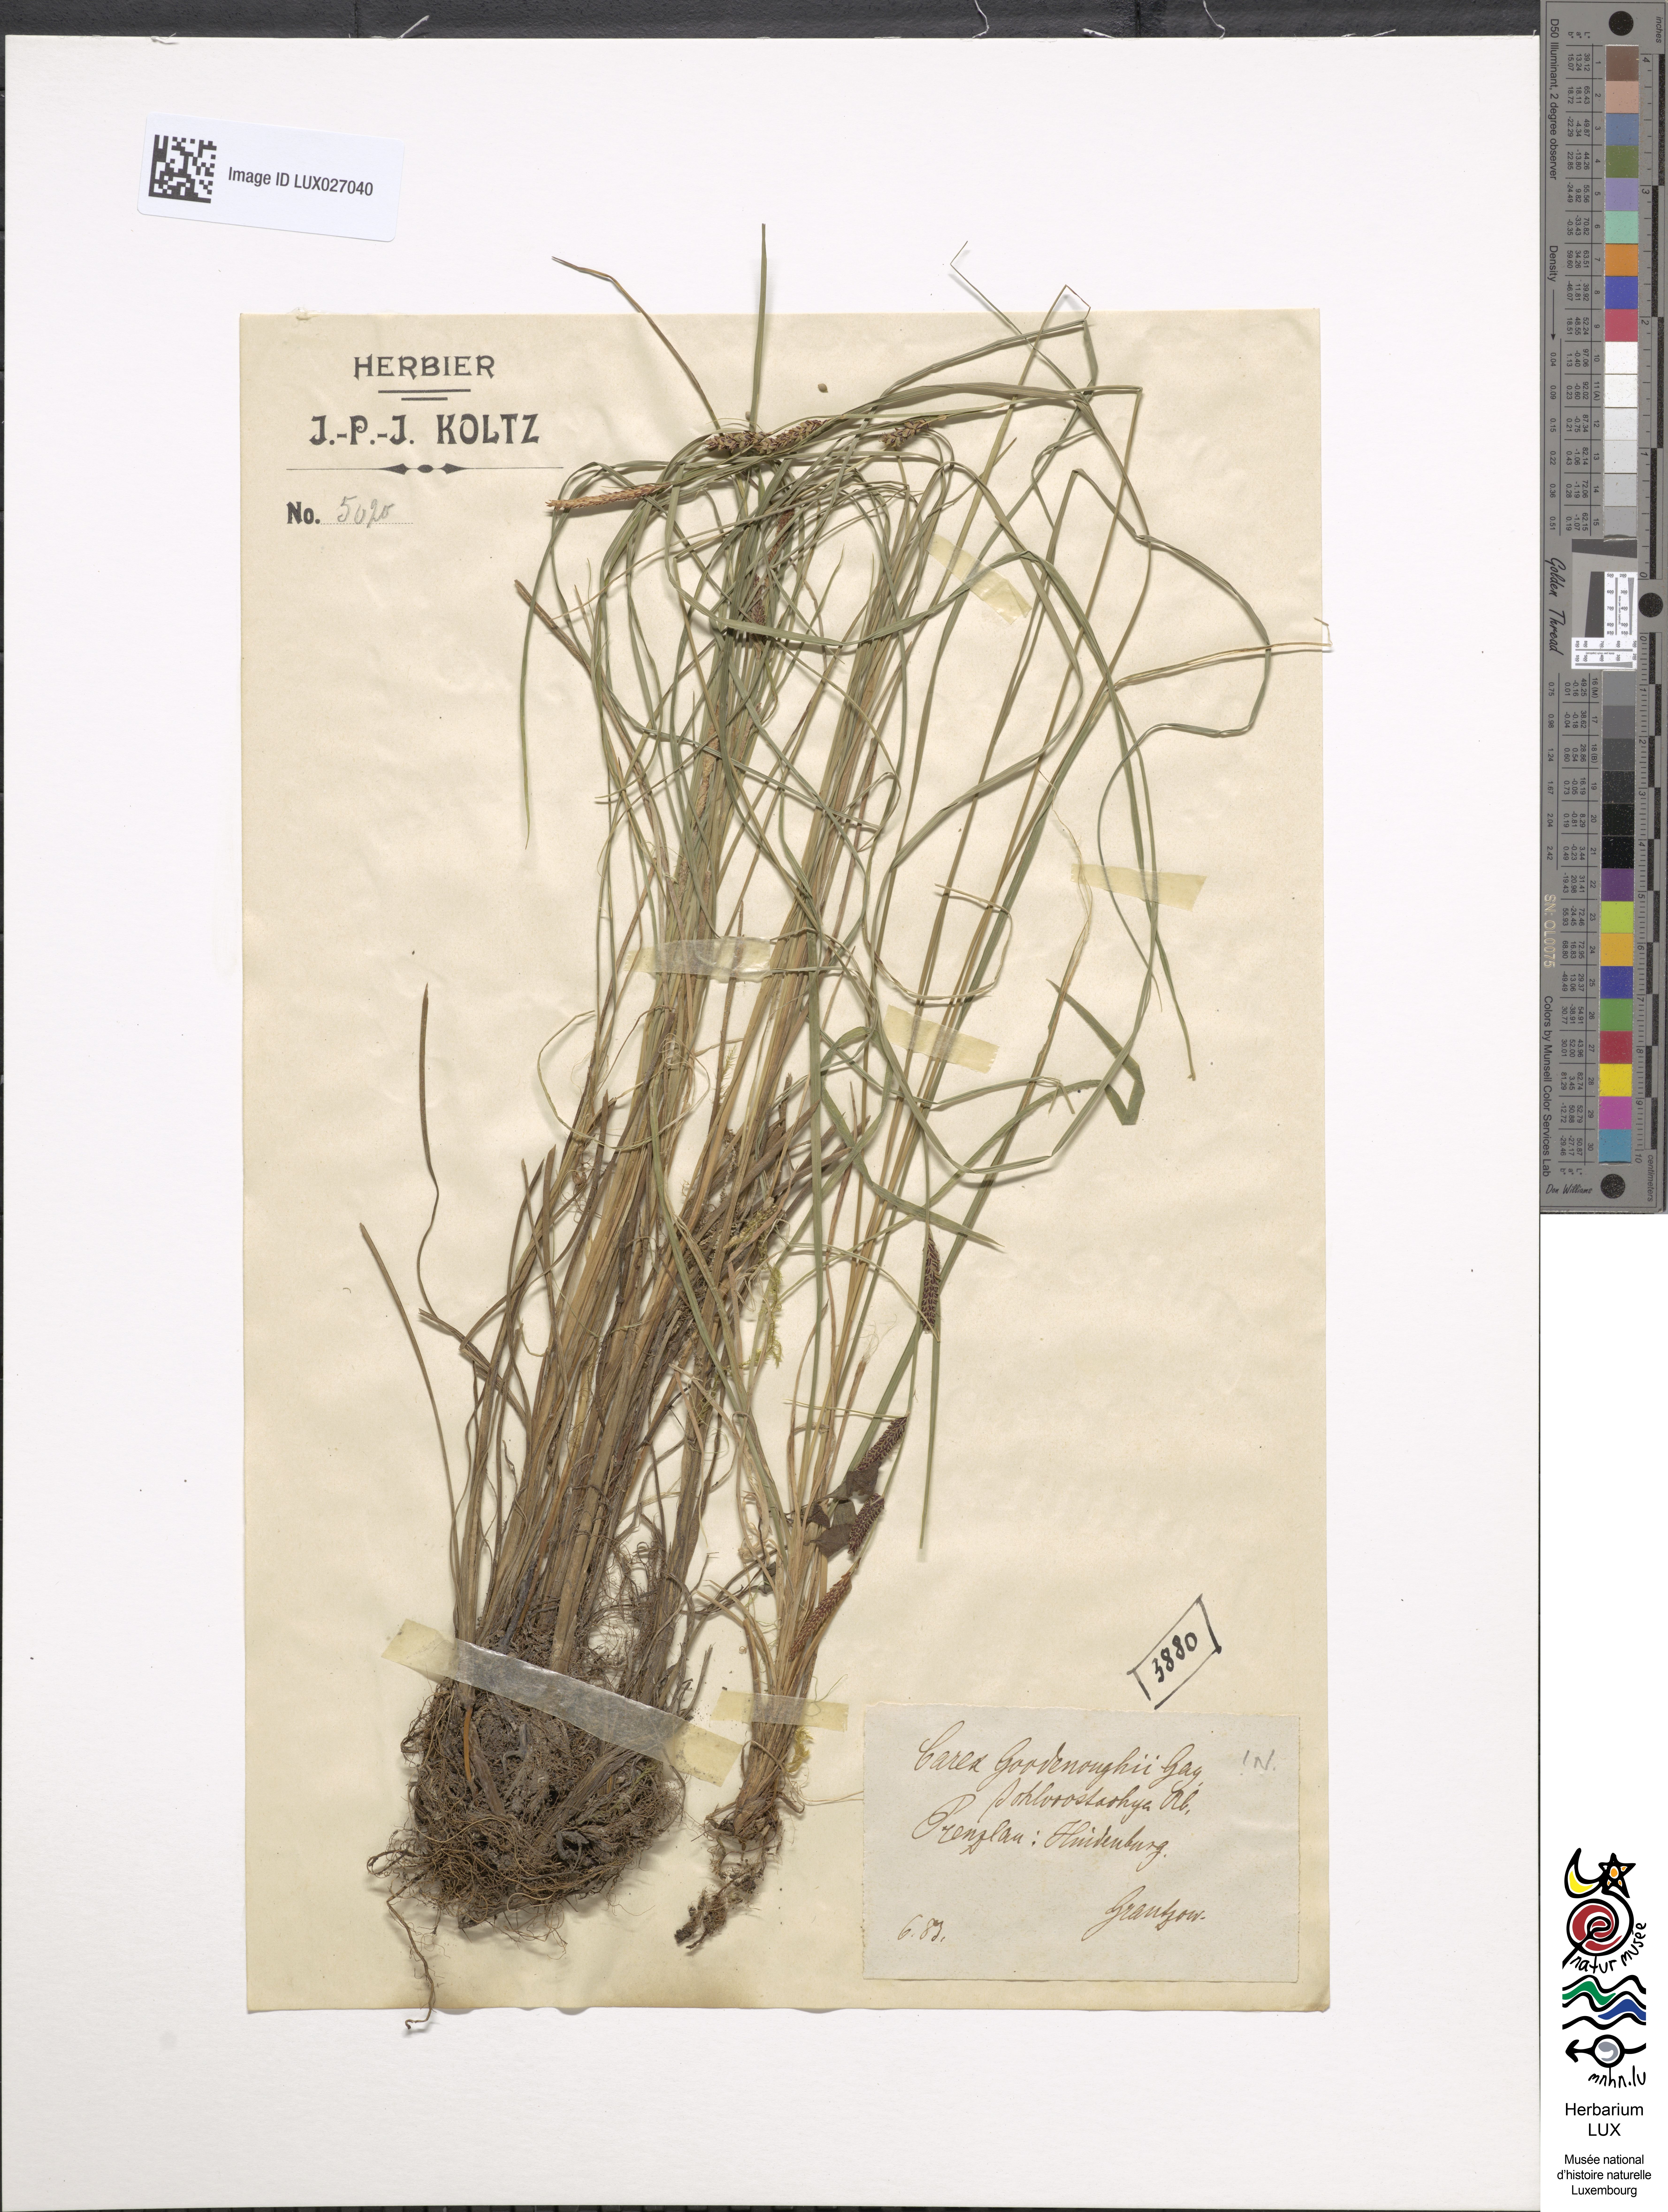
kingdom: Plantae
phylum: Tracheophyta
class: Liliopsida
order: Poales
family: Cyperaceae
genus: Carex
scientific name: Carex nigra
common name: Common sedge
